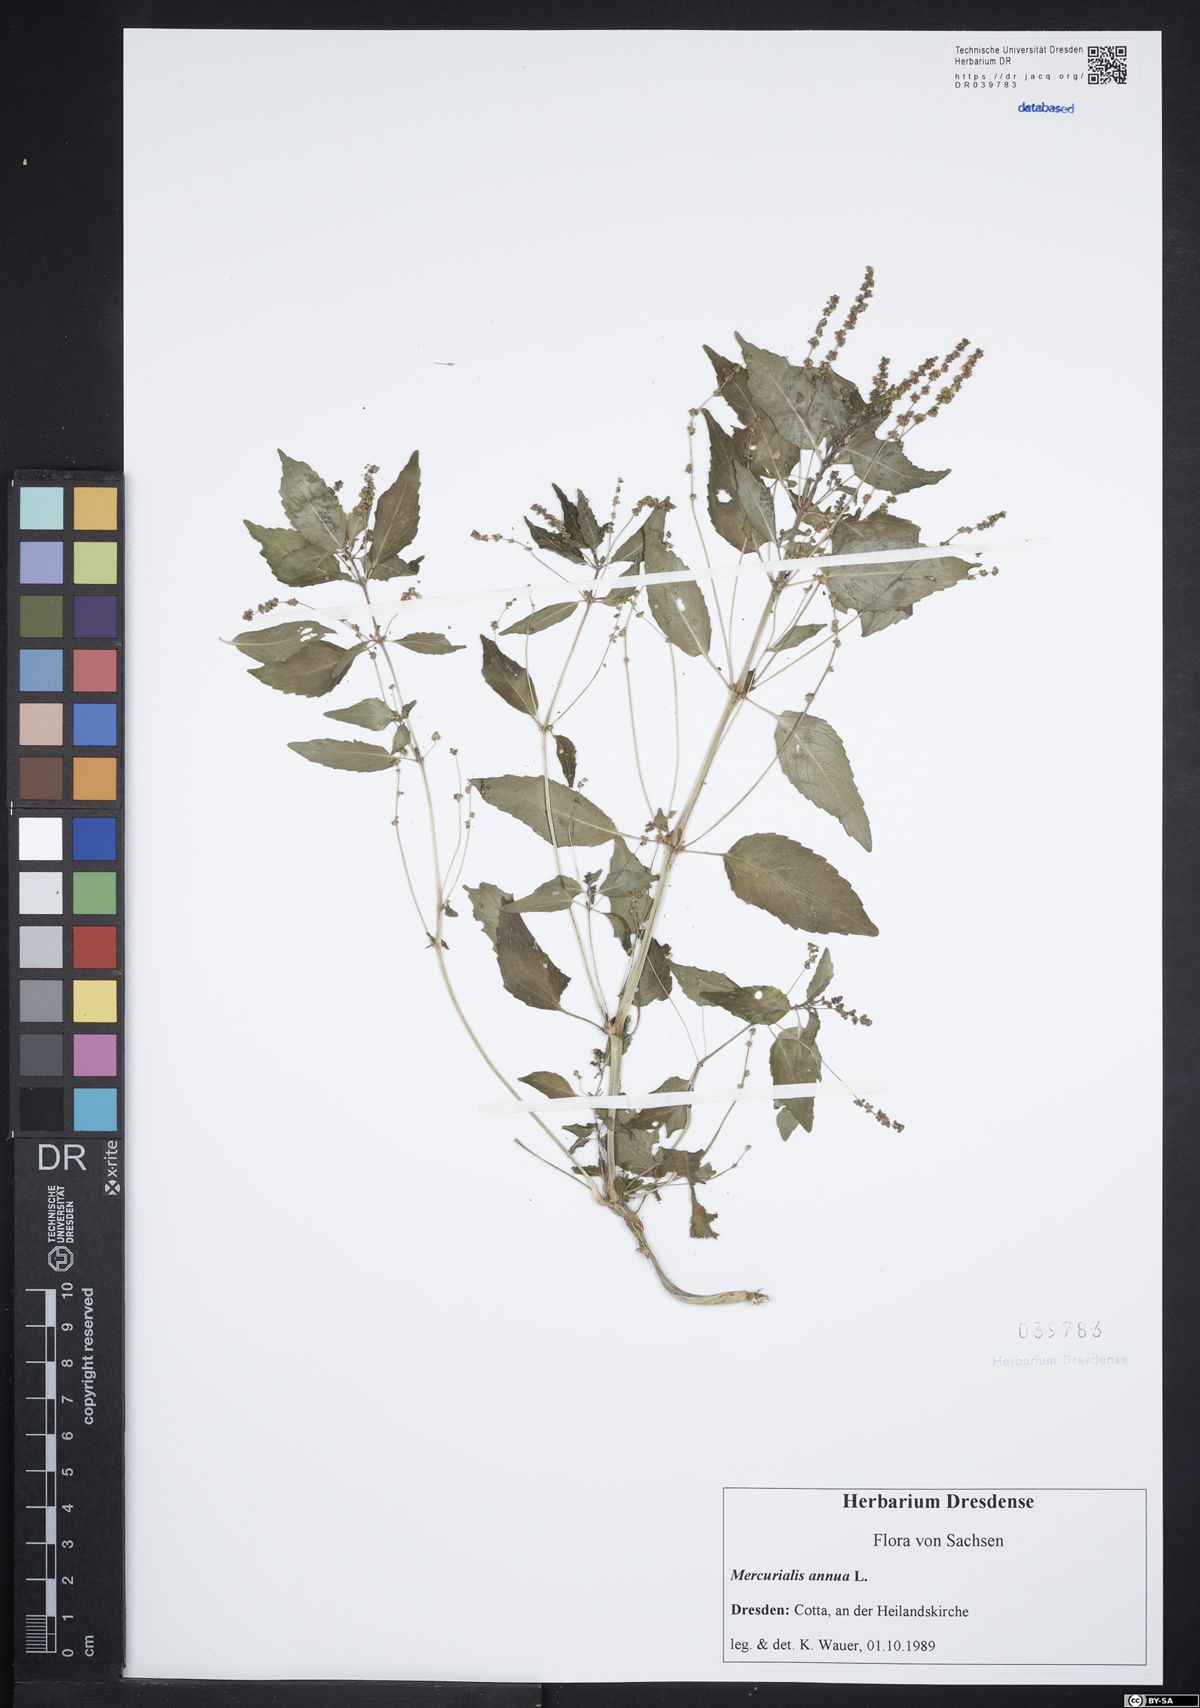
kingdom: Plantae
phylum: Tracheophyta
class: Magnoliopsida
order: Malpighiales
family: Euphorbiaceae
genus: Mercurialis
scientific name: Mercurialis annua
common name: Annual mercury
